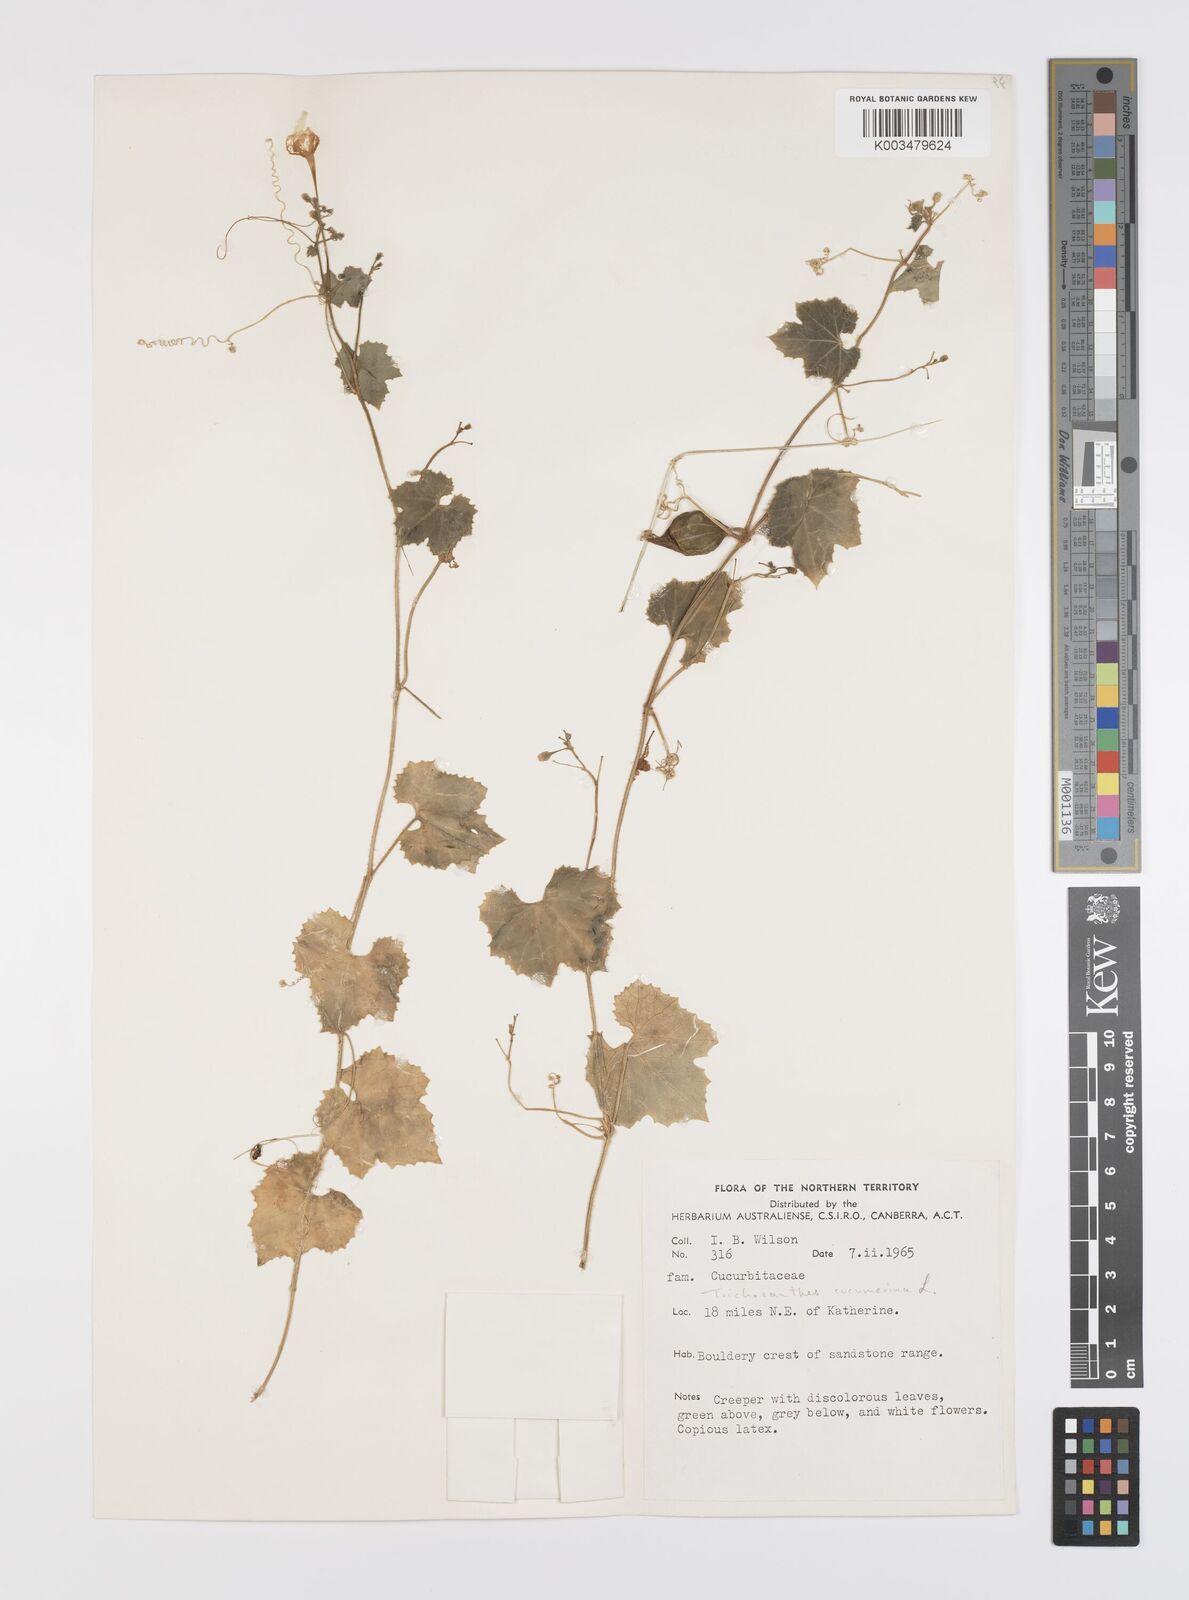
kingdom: Plantae
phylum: Tracheophyta
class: Magnoliopsida
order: Cucurbitales
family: Cucurbitaceae
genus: Trichosanthes
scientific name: Trichosanthes cucumerina
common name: Snakegourd
